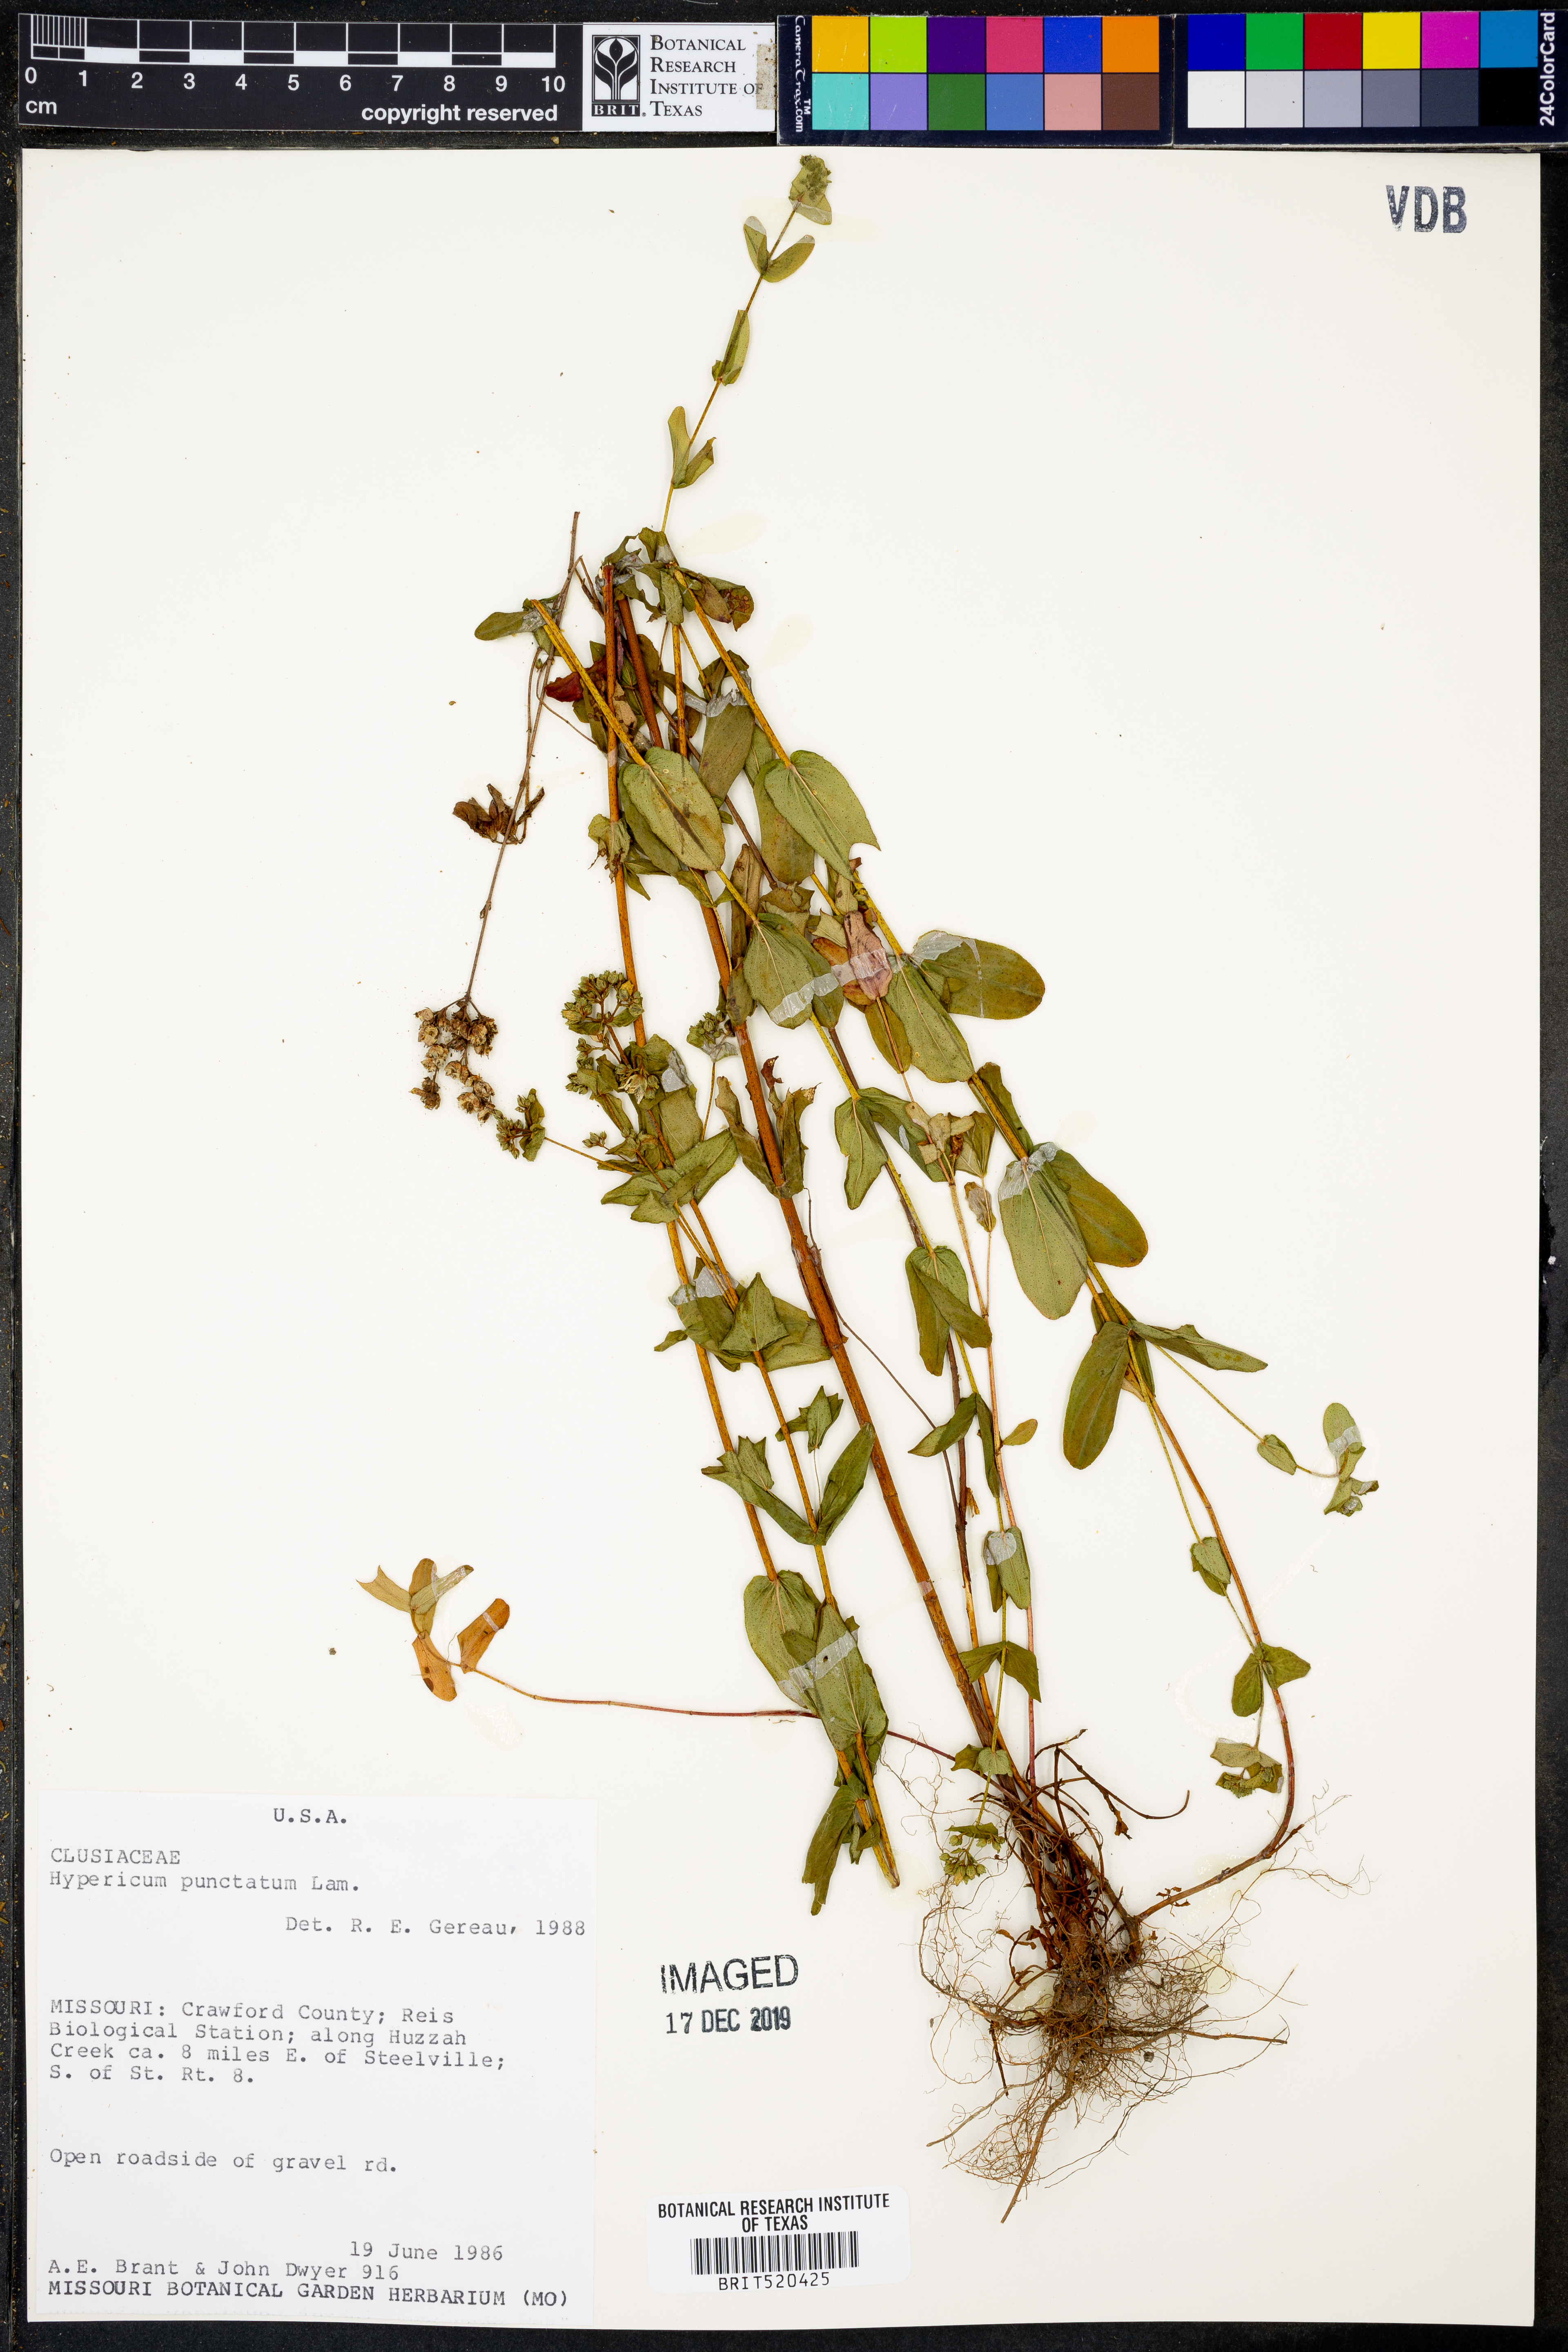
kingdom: Plantae
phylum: Tracheophyta
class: Magnoliopsida
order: Malpighiales
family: Hypericaceae
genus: Hypericum
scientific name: Hypericum punctatum
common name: Spotted st. john's-wort
